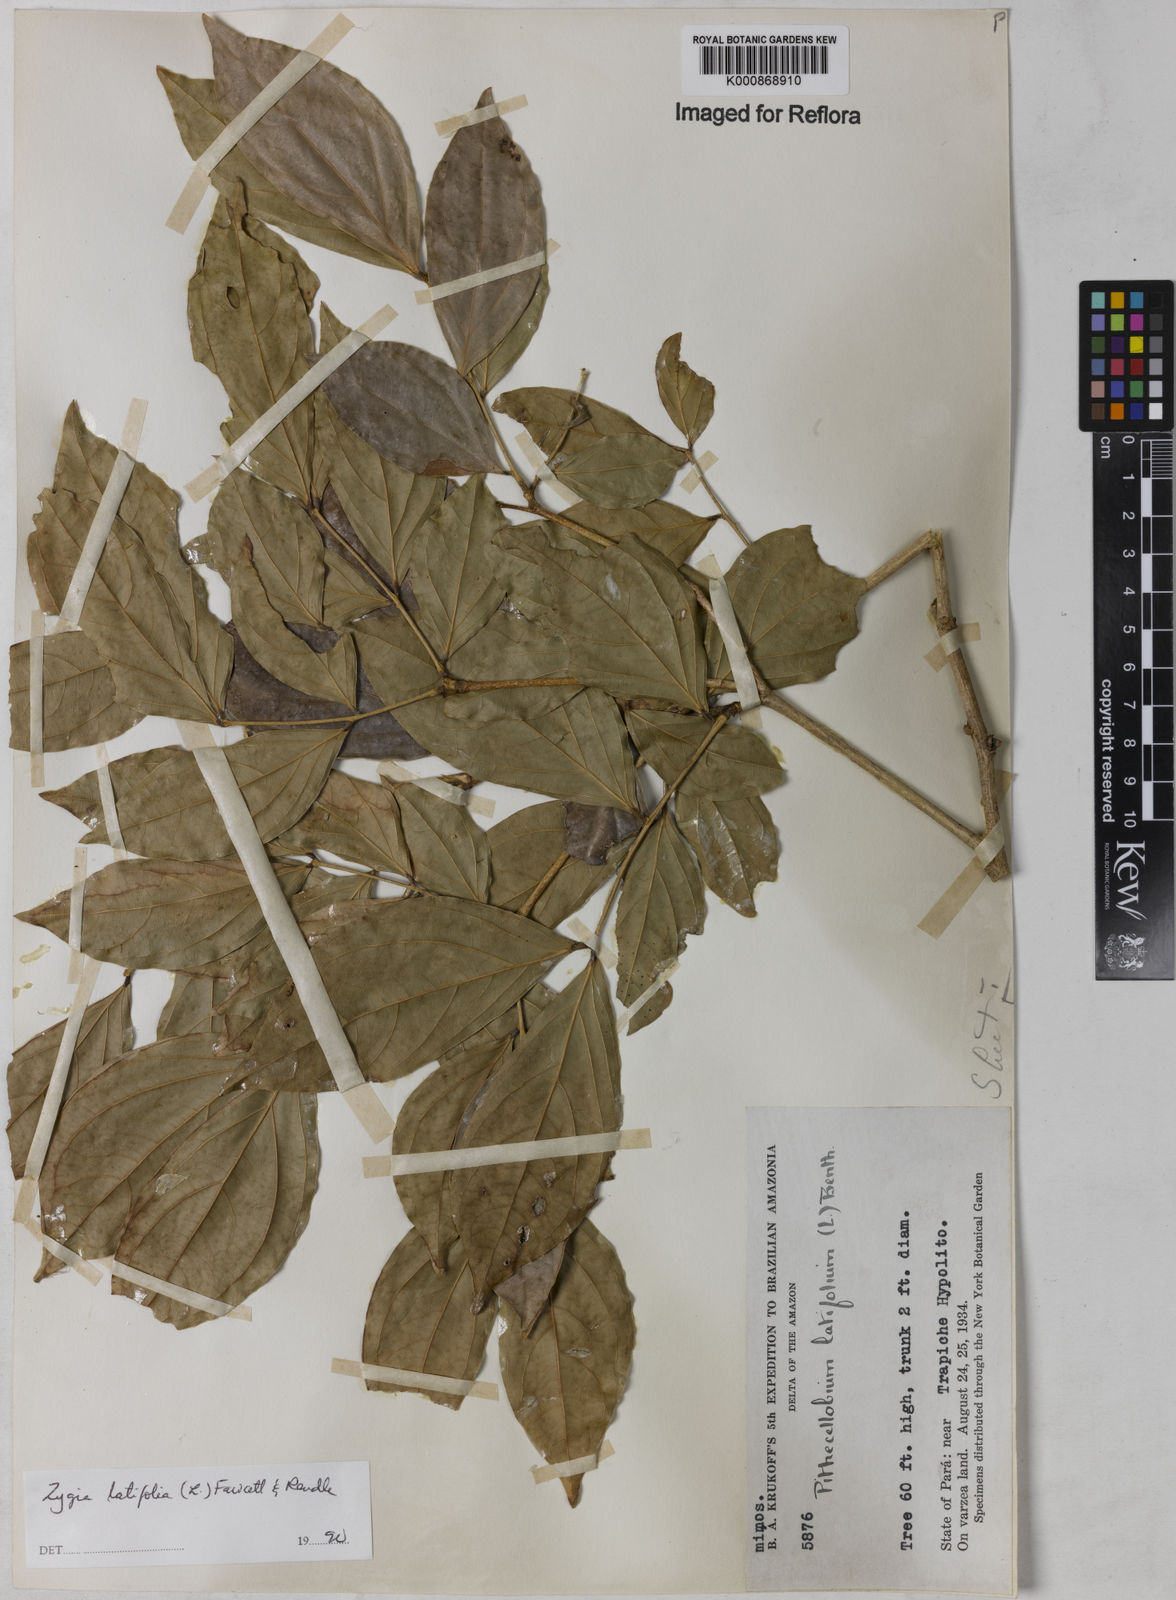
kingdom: Plantae
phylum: Tracheophyta
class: Magnoliopsida
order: Fabales
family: Fabaceae
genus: Zygia
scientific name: Zygia latifolia
